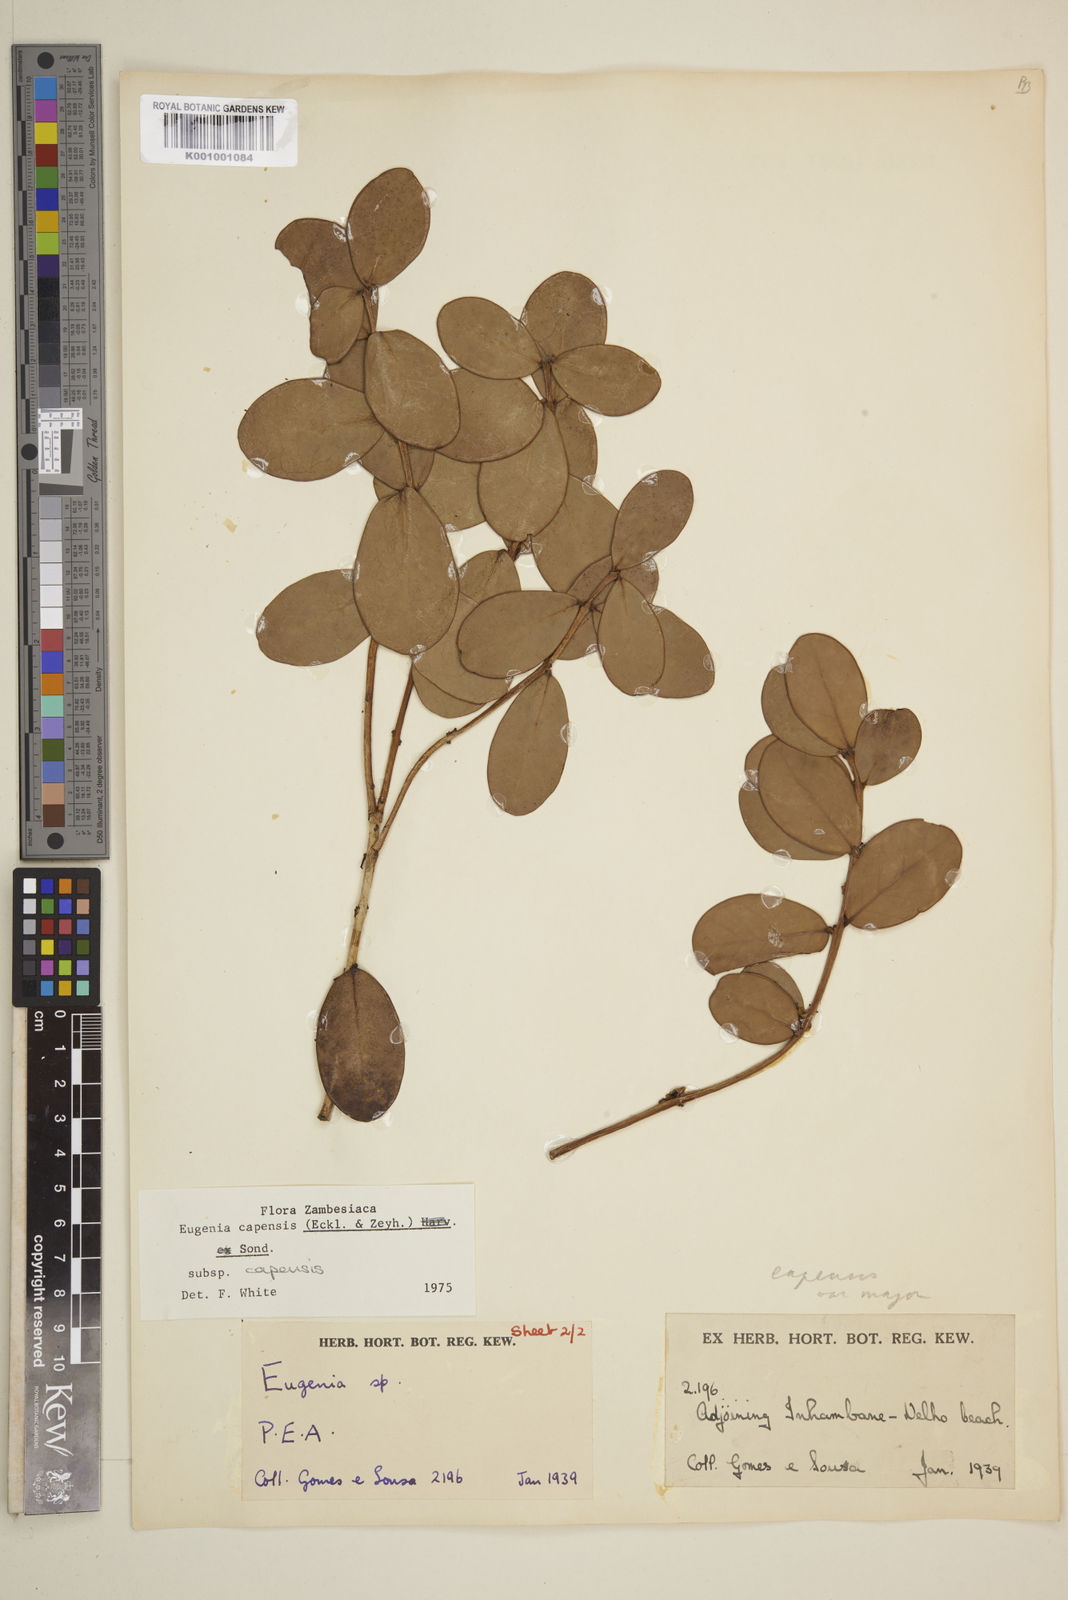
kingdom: Plantae
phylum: Tracheophyta
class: Magnoliopsida
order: Myrtales
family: Myrtaceae
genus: Eugenia
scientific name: Eugenia capensis
